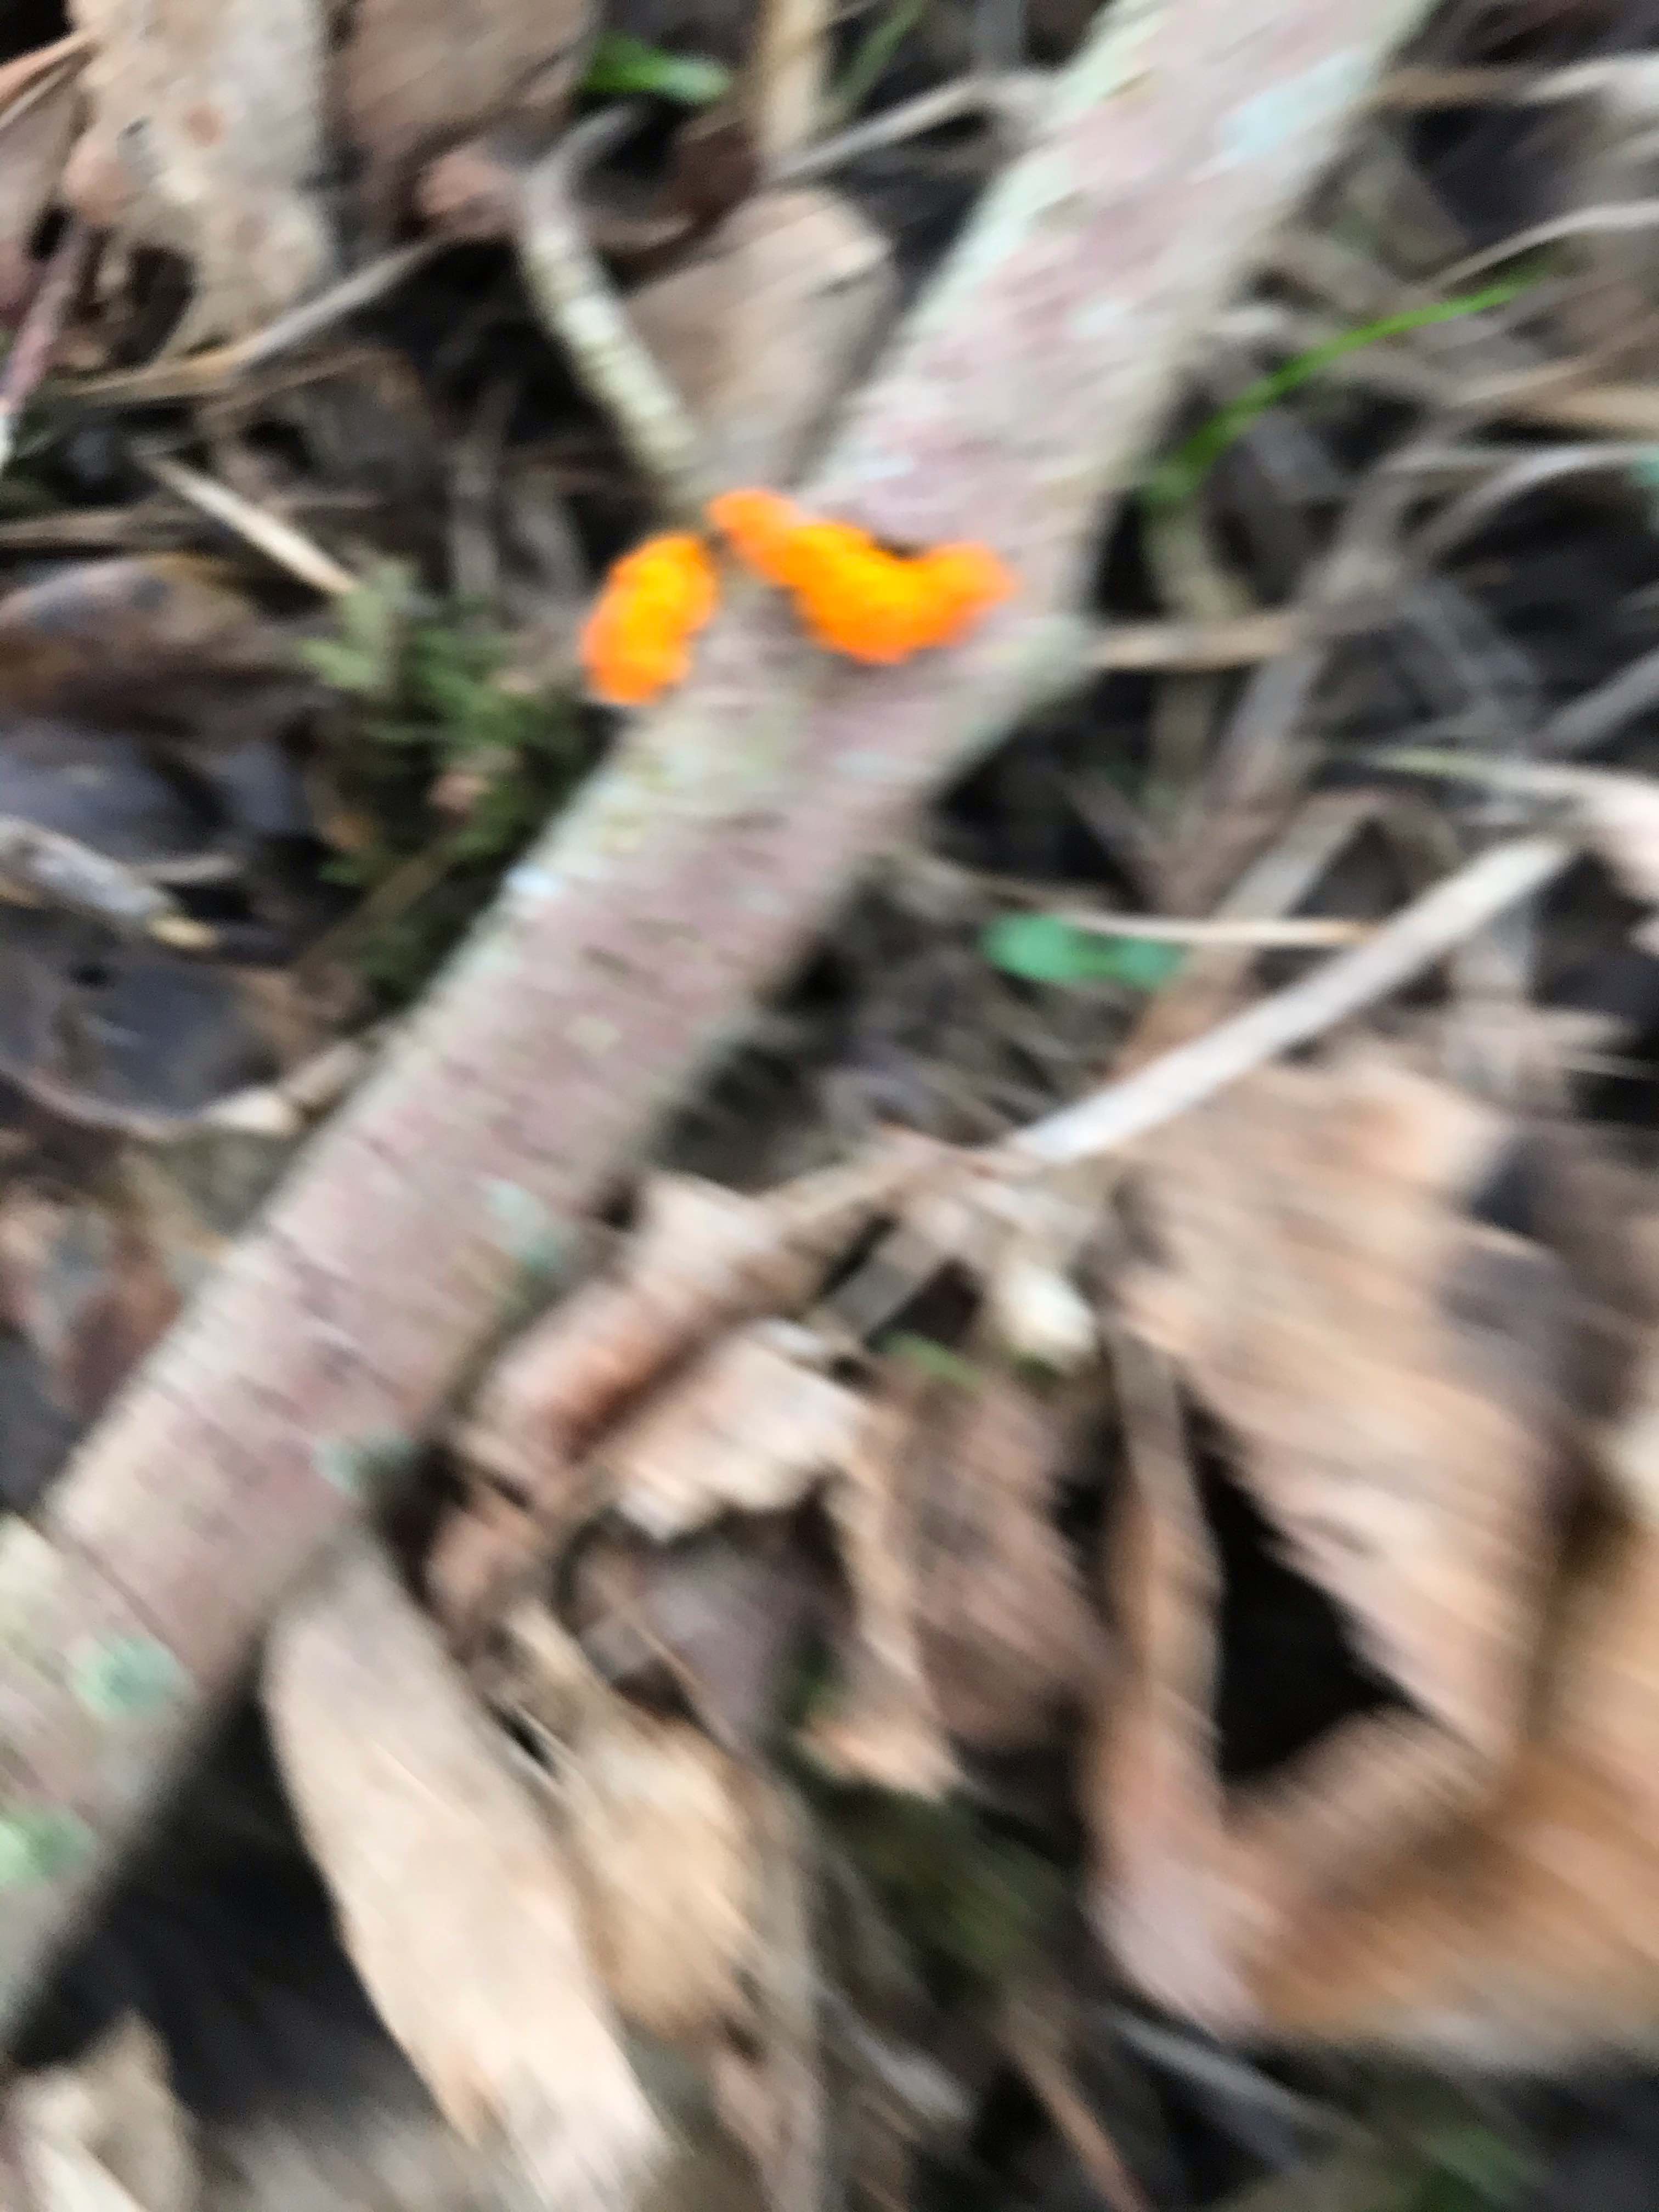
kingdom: Fungi
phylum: Basidiomycota
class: Tremellomycetes
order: Tremellales
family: Tremellaceae
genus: Tremella
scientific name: Tremella mesenterica
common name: gul bævresvamp
